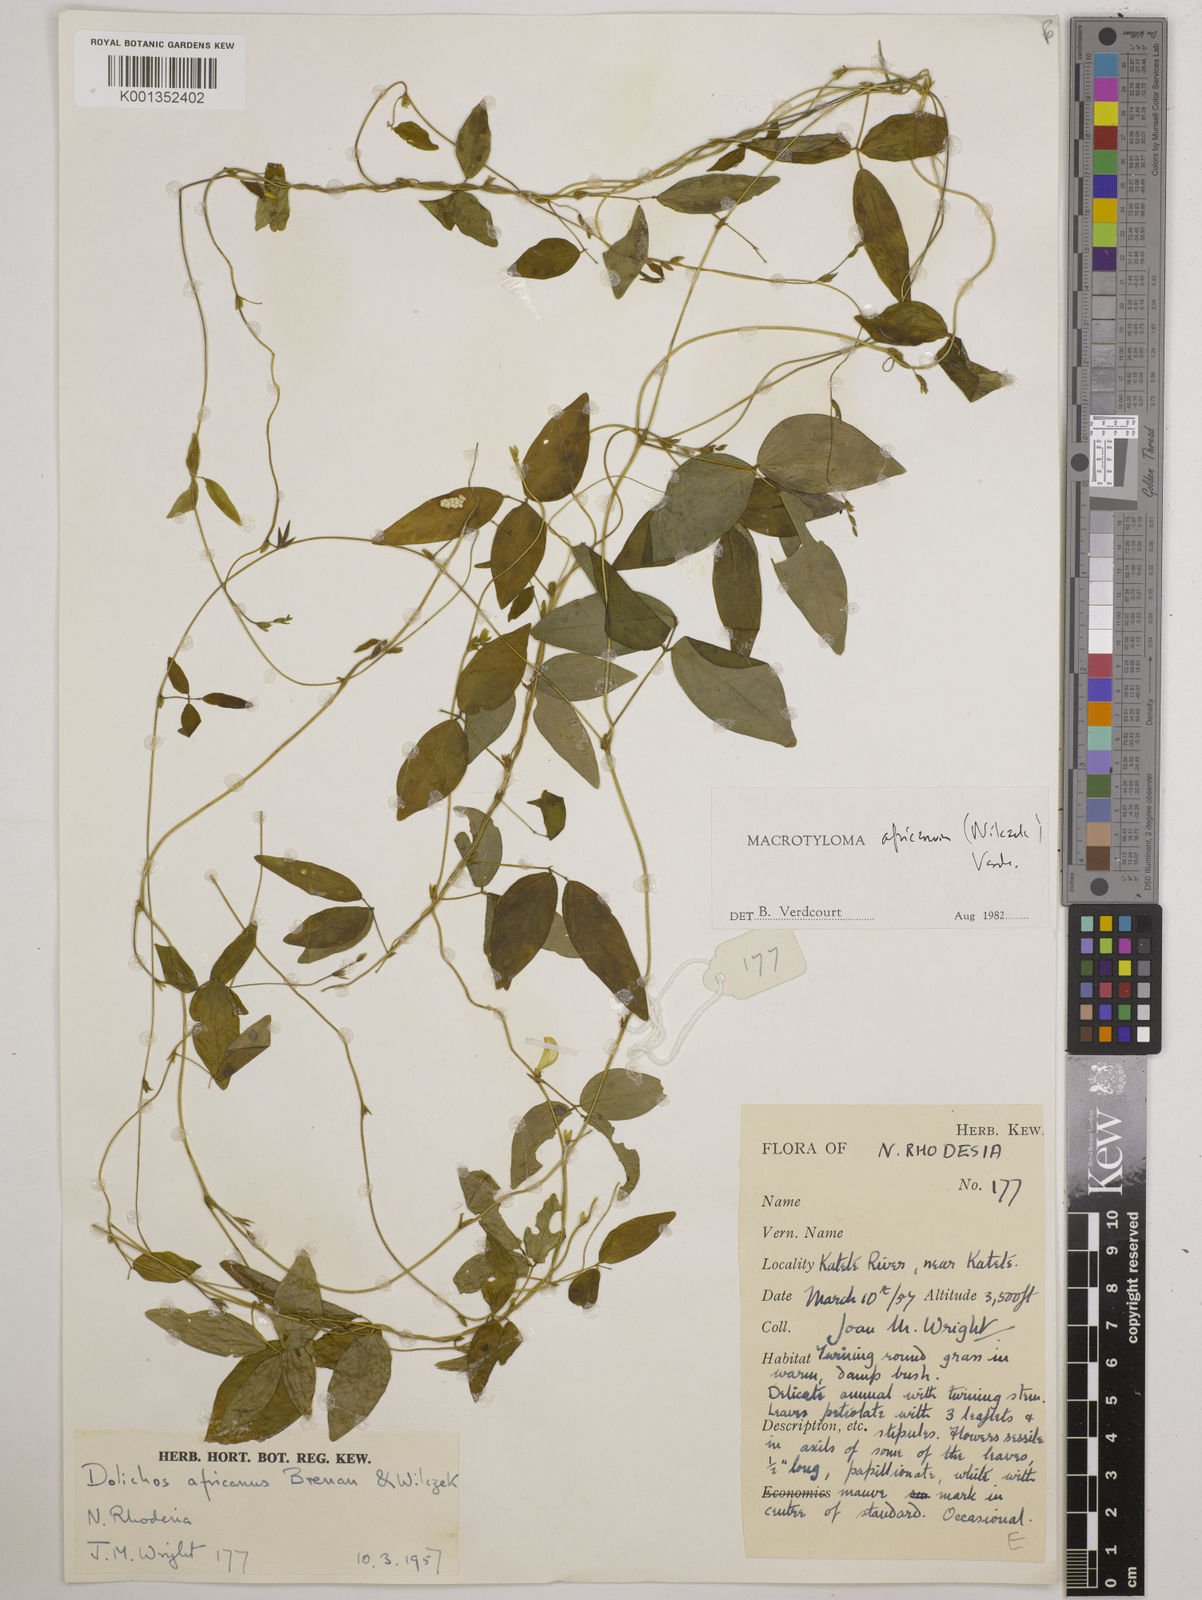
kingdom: Plantae
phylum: Tracheophyta
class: Magnoliopsida
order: Fabales
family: Fabaceae
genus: Macrotyloma
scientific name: Macrotyloma africanum
